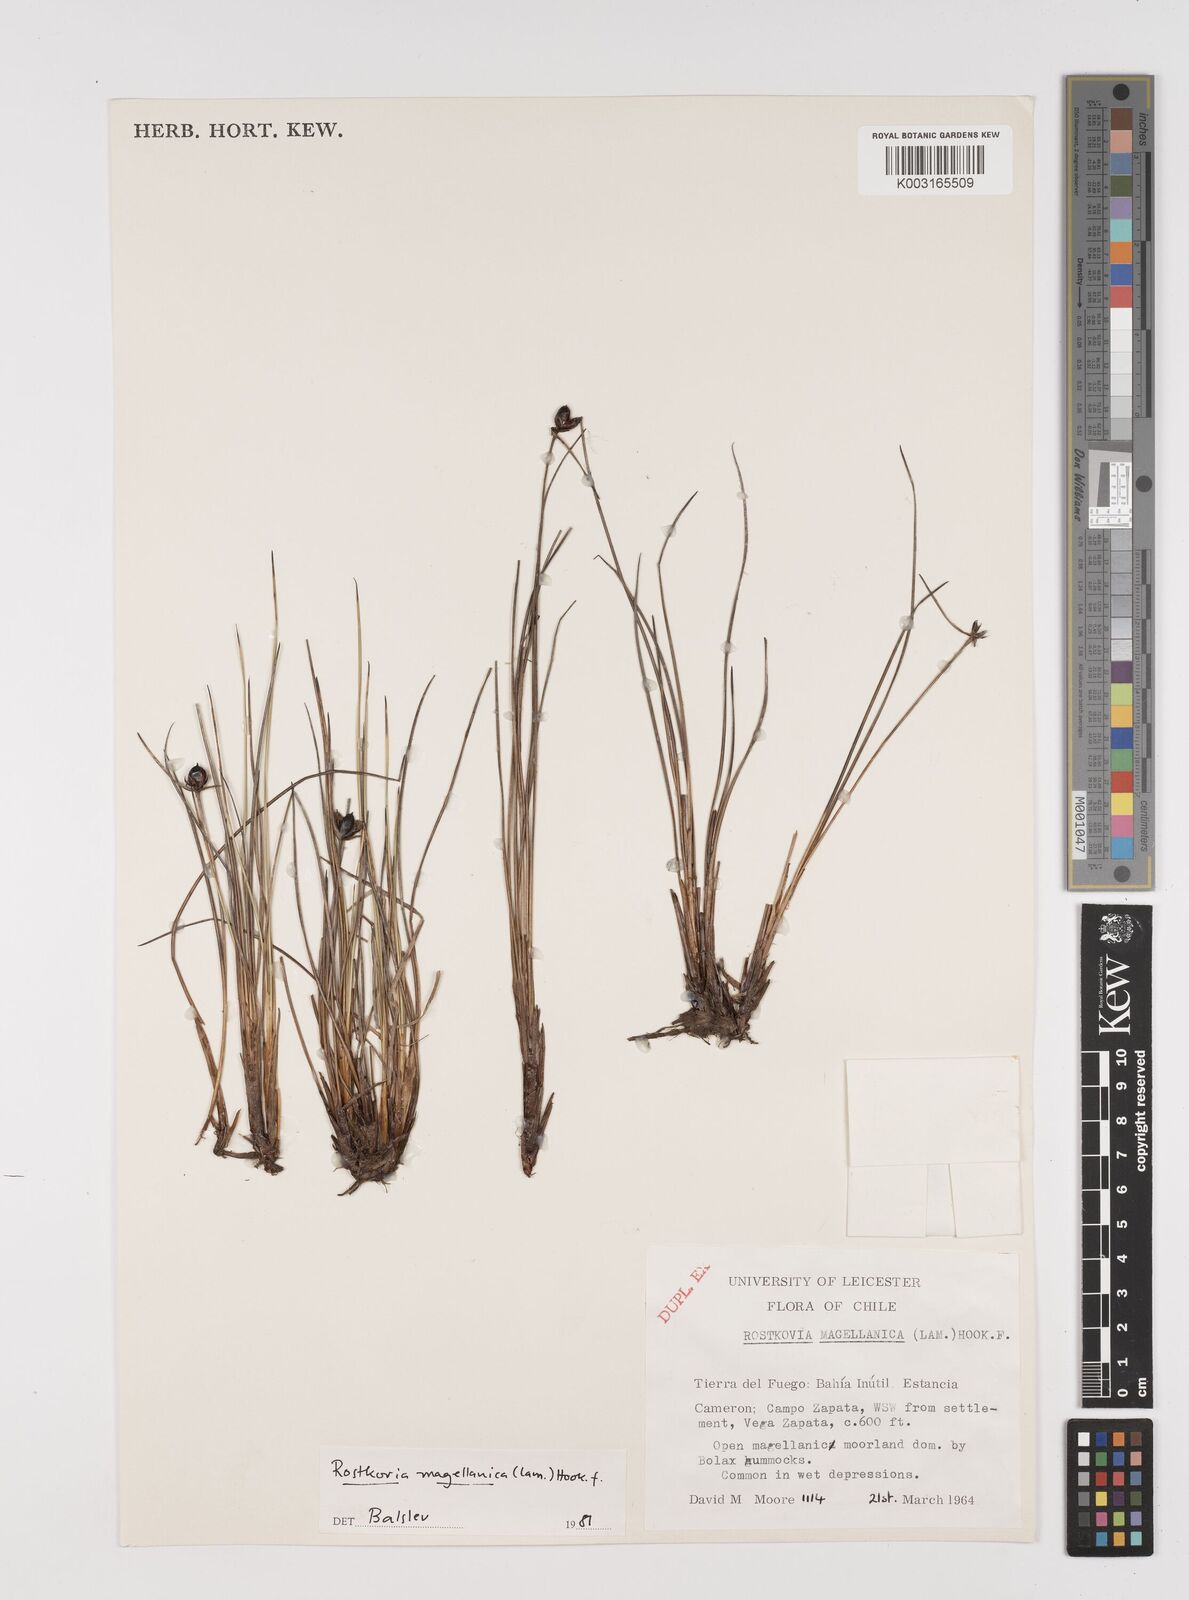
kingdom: Plantae
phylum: Tracheophyta
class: Liliopsida
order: Poales
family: Juncaceae
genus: Rostkovia
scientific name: Rostkovia magellanica
